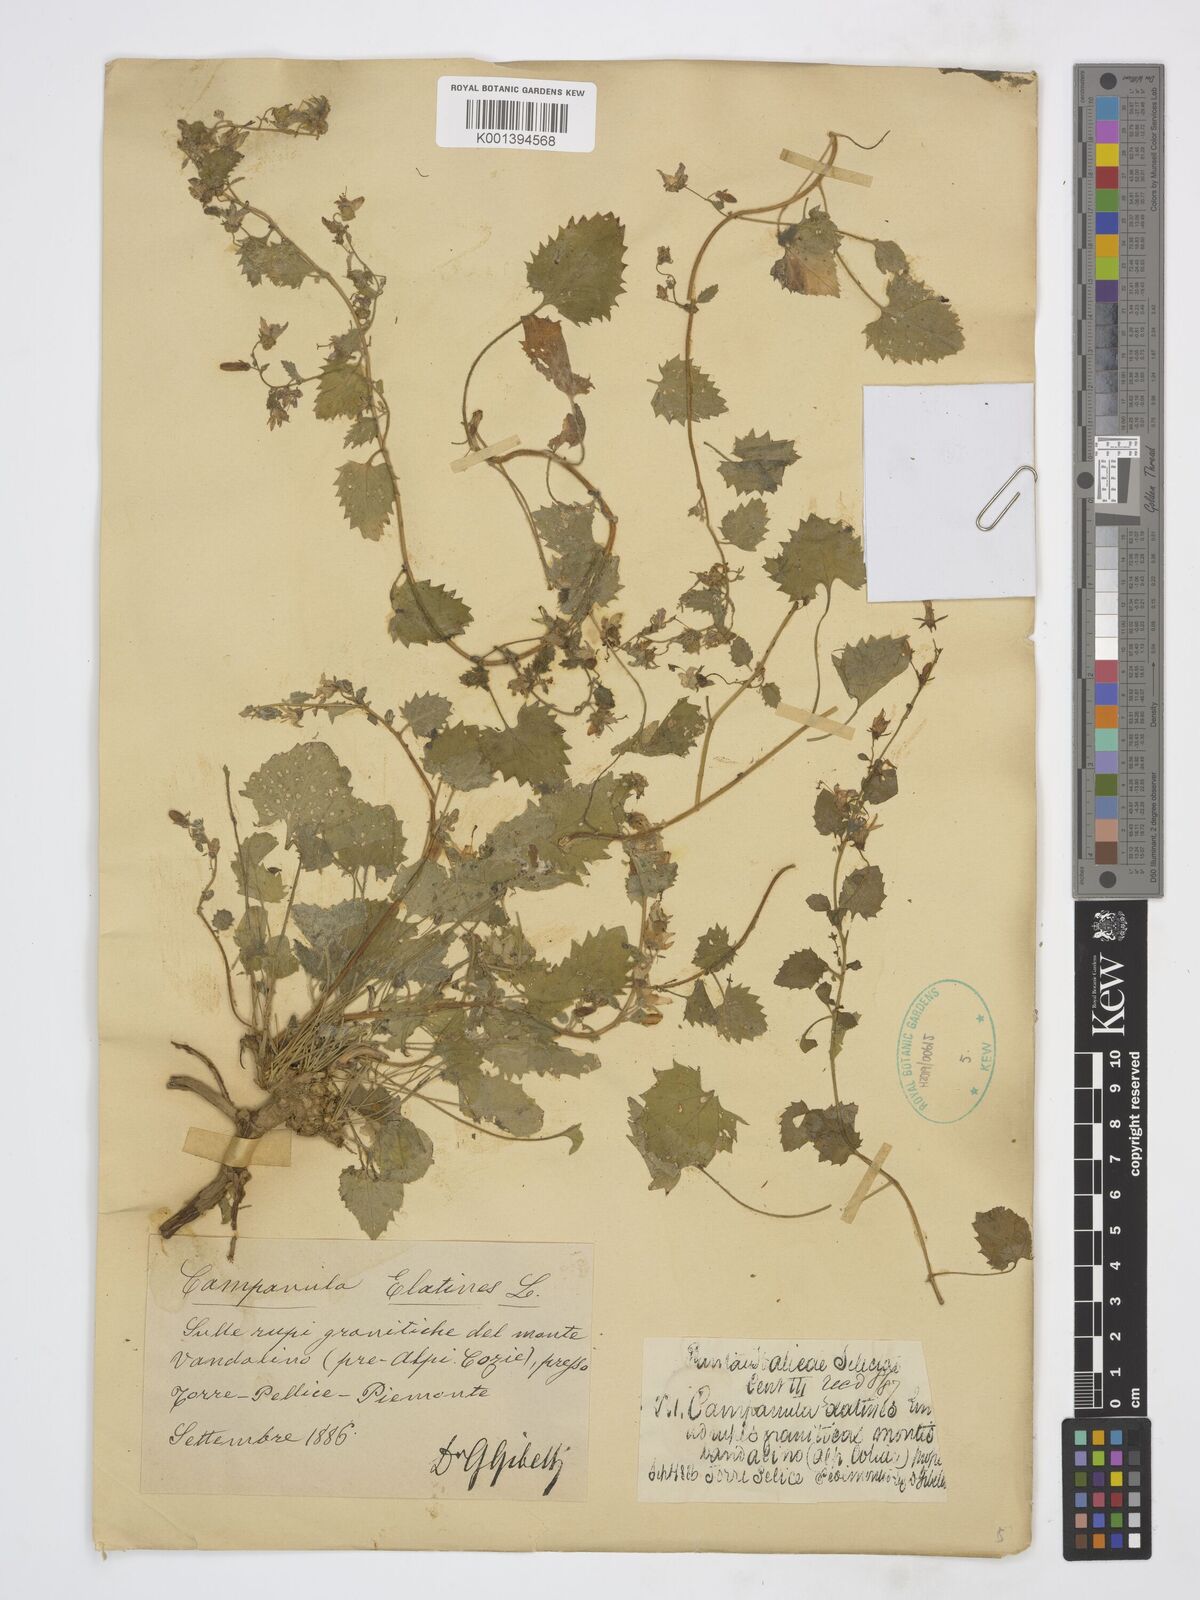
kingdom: Plantae
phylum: Tracheophyta
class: Magnoliopsida
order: Asterales
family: Campanulaceae
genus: Campanula
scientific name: Campanula elatines
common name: Adriatic bellflower
